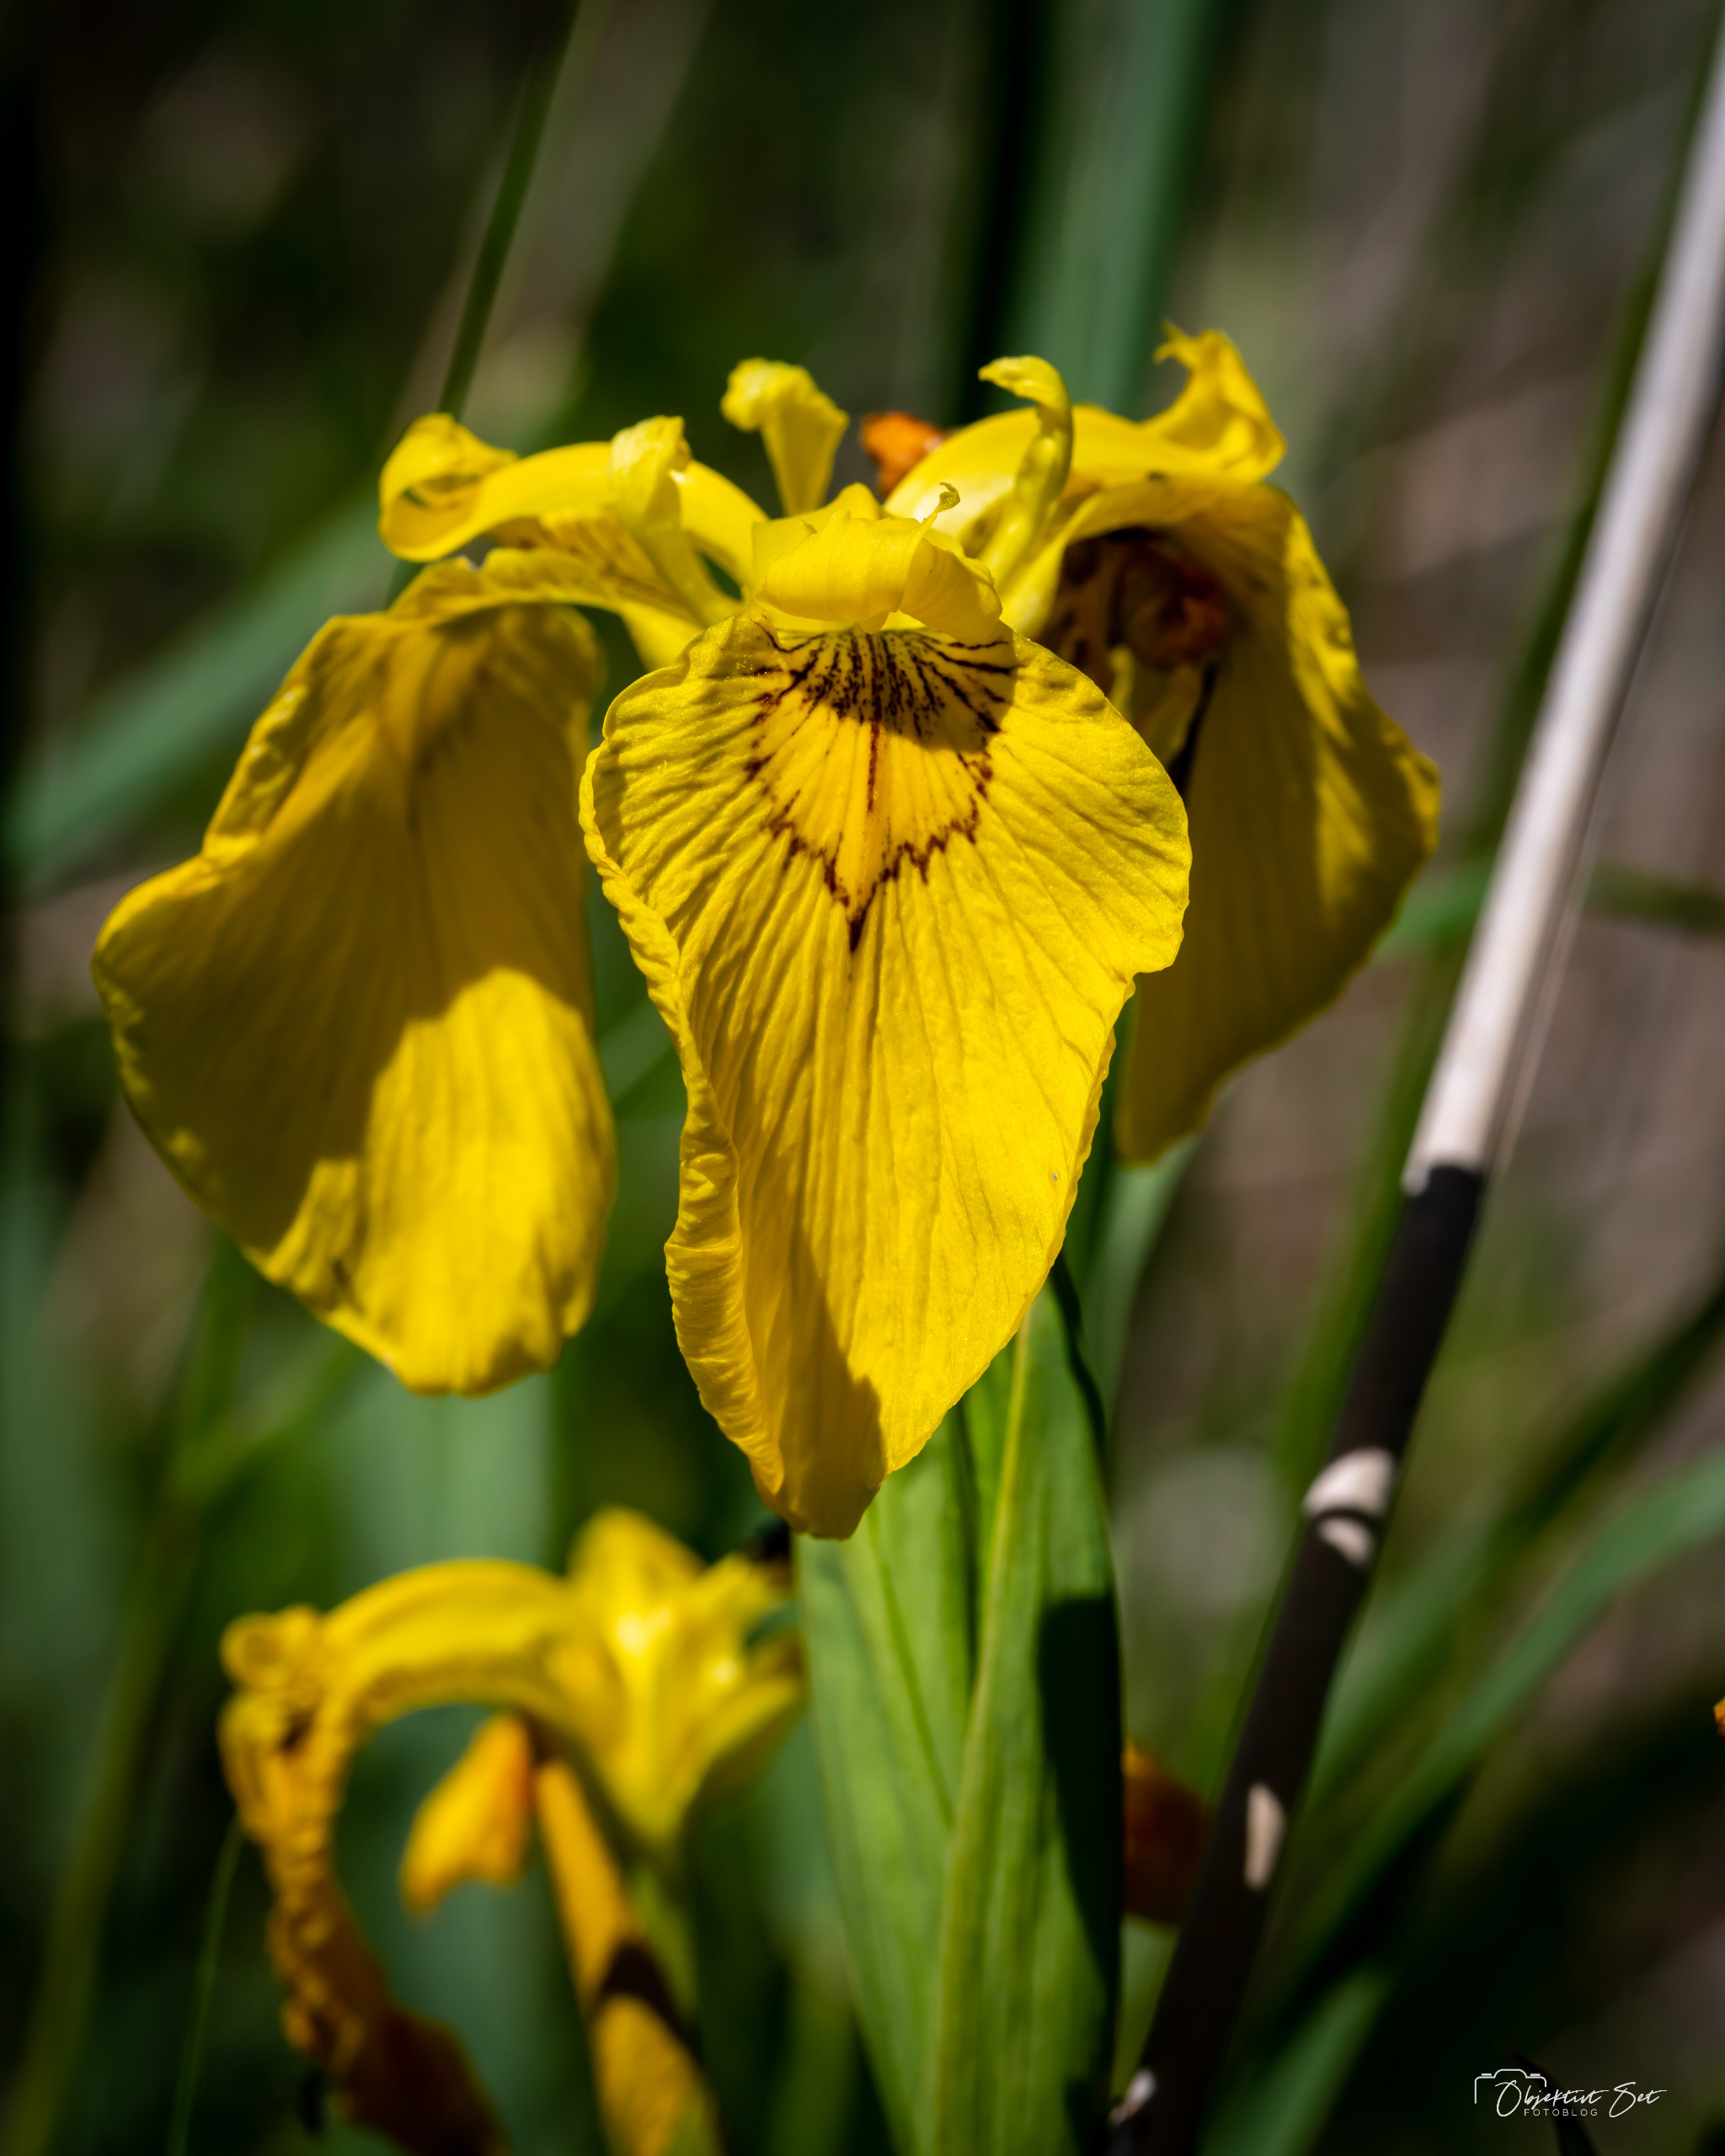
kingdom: Plantae
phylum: Tracheophyta
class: Liliopsida
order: Asparagales
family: Iridaceae
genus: Iris
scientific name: Iris pseudacorus
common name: Gul iris
